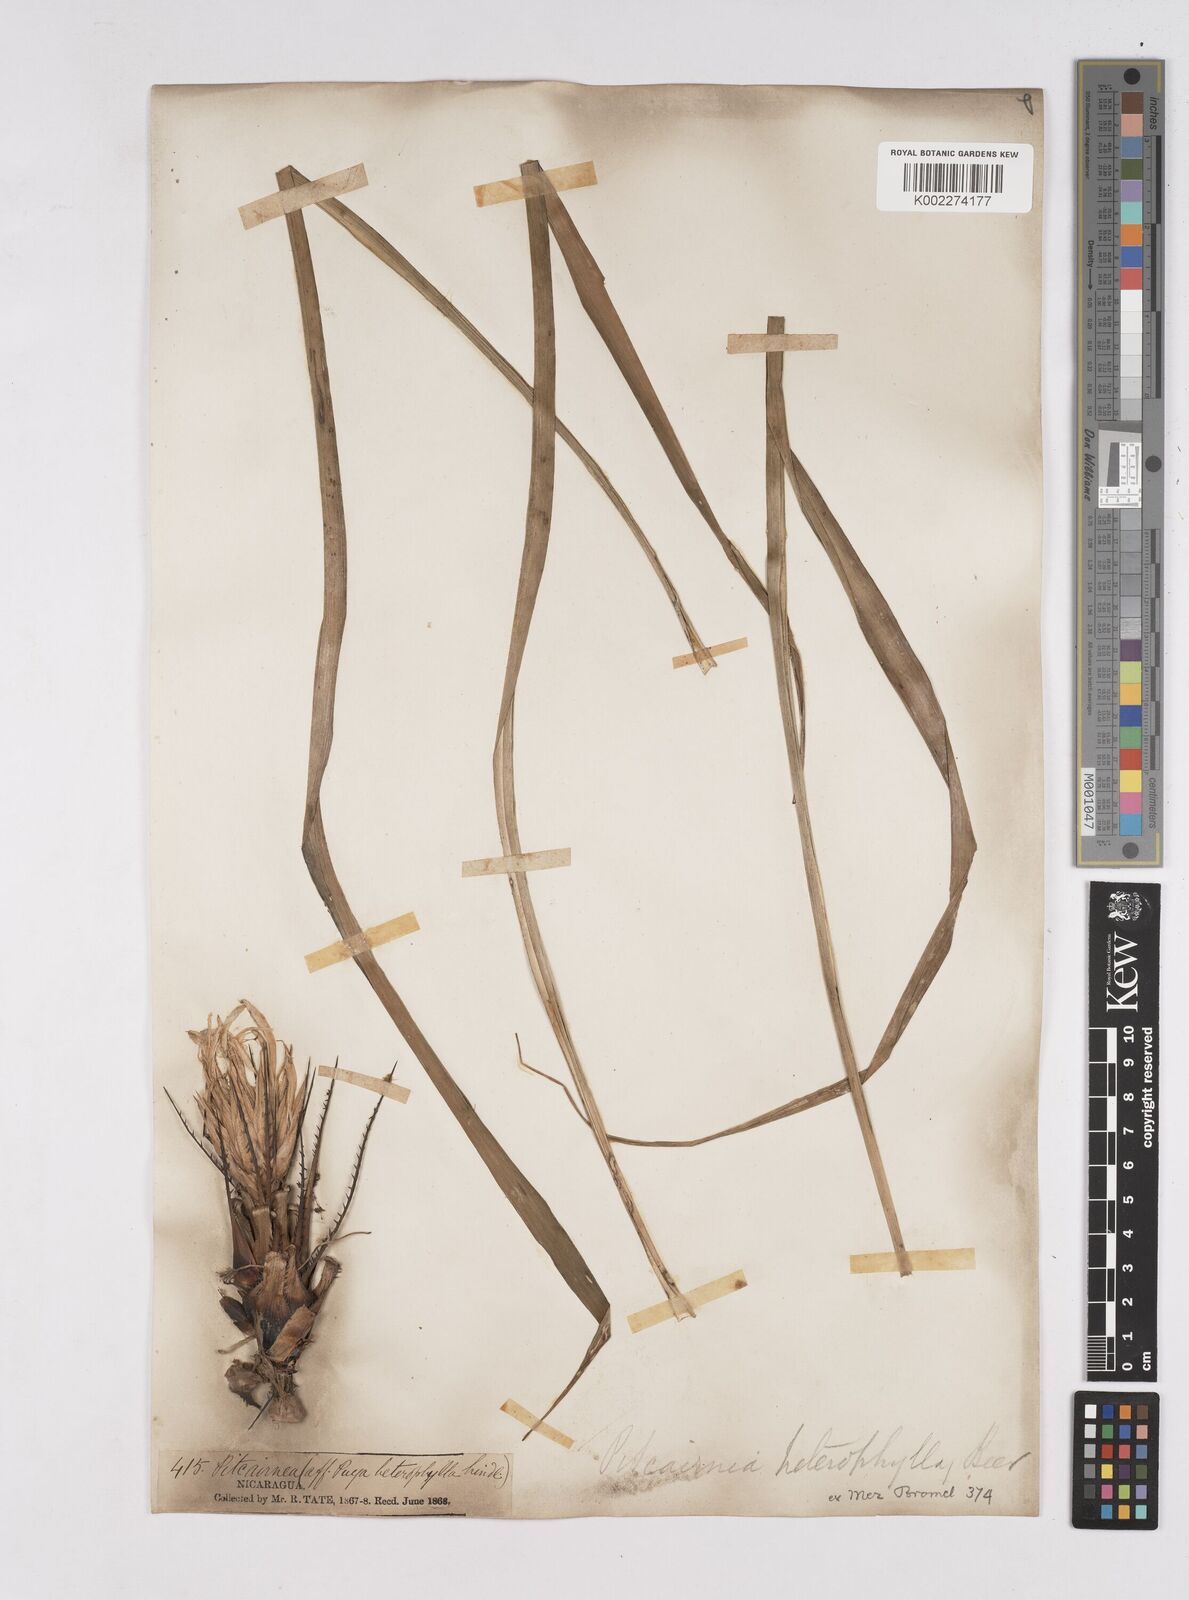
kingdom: Plantae
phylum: Tracheophyta
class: Liliopsida
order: Poales
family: Bromeliaceae
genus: Pitcairnia
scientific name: Pitcairnia heterophylla
